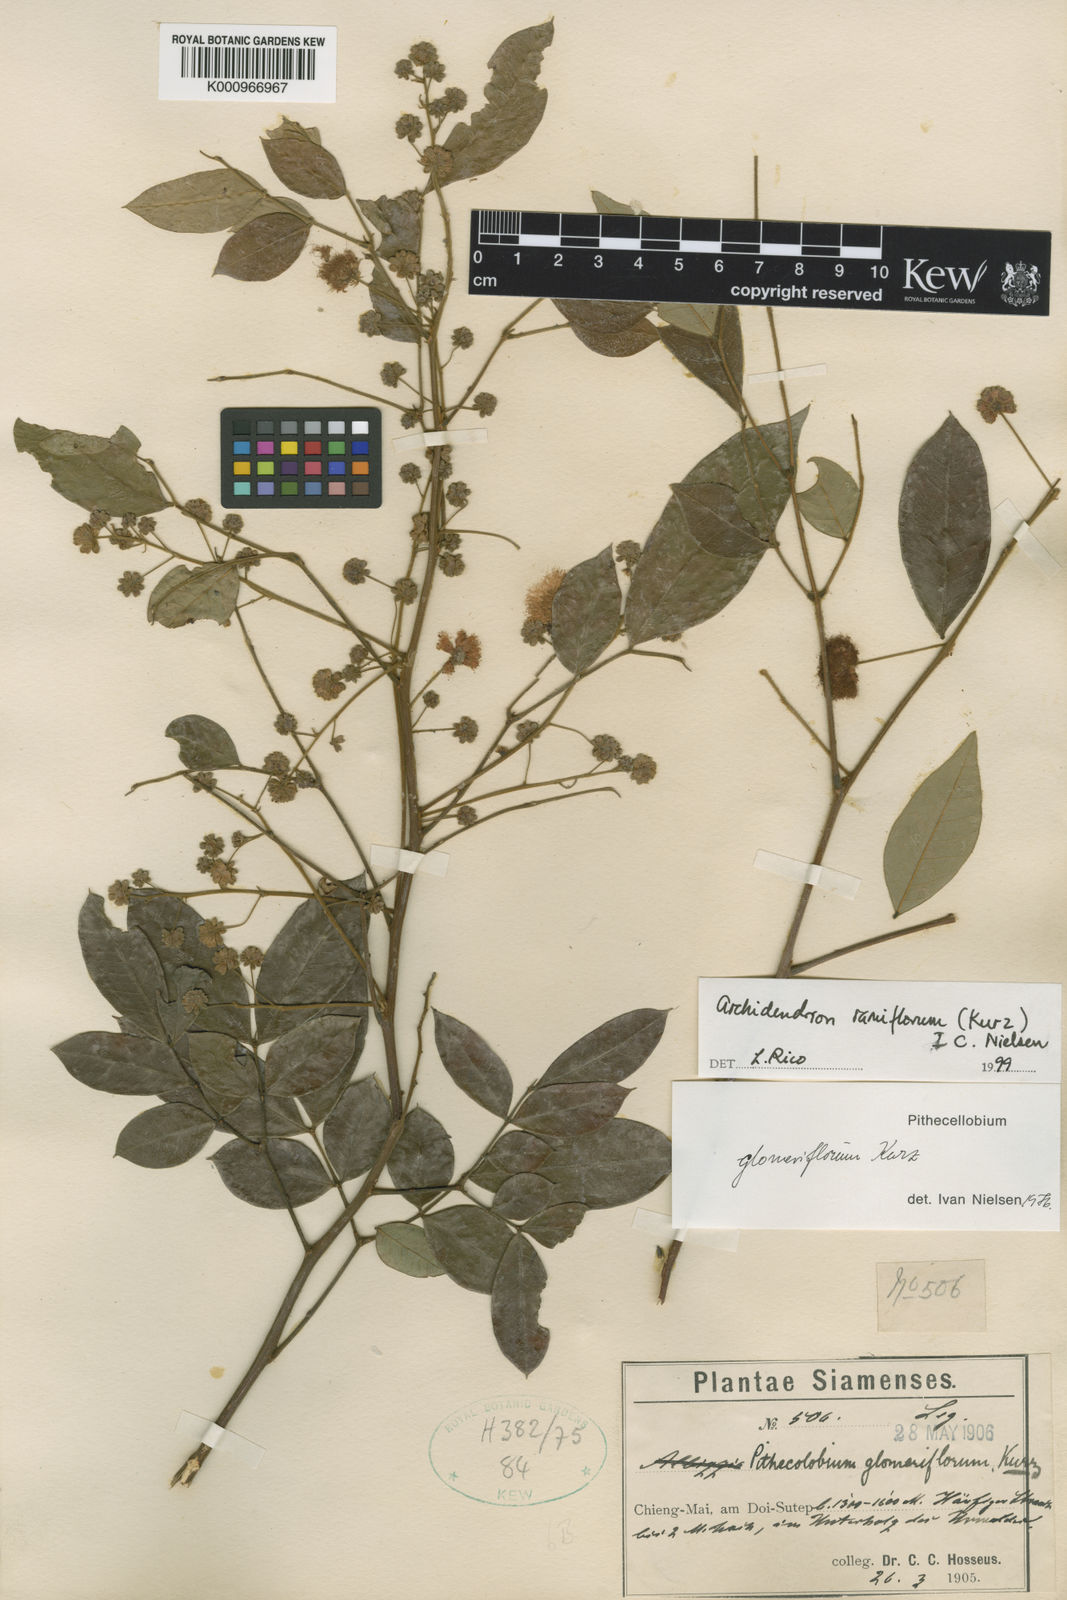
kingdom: Plantae
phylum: Tracheophyta
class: Magnoliopsida
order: Fabales
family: Fabaceae
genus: Archidendron
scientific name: Archidendron glomeriflorum
